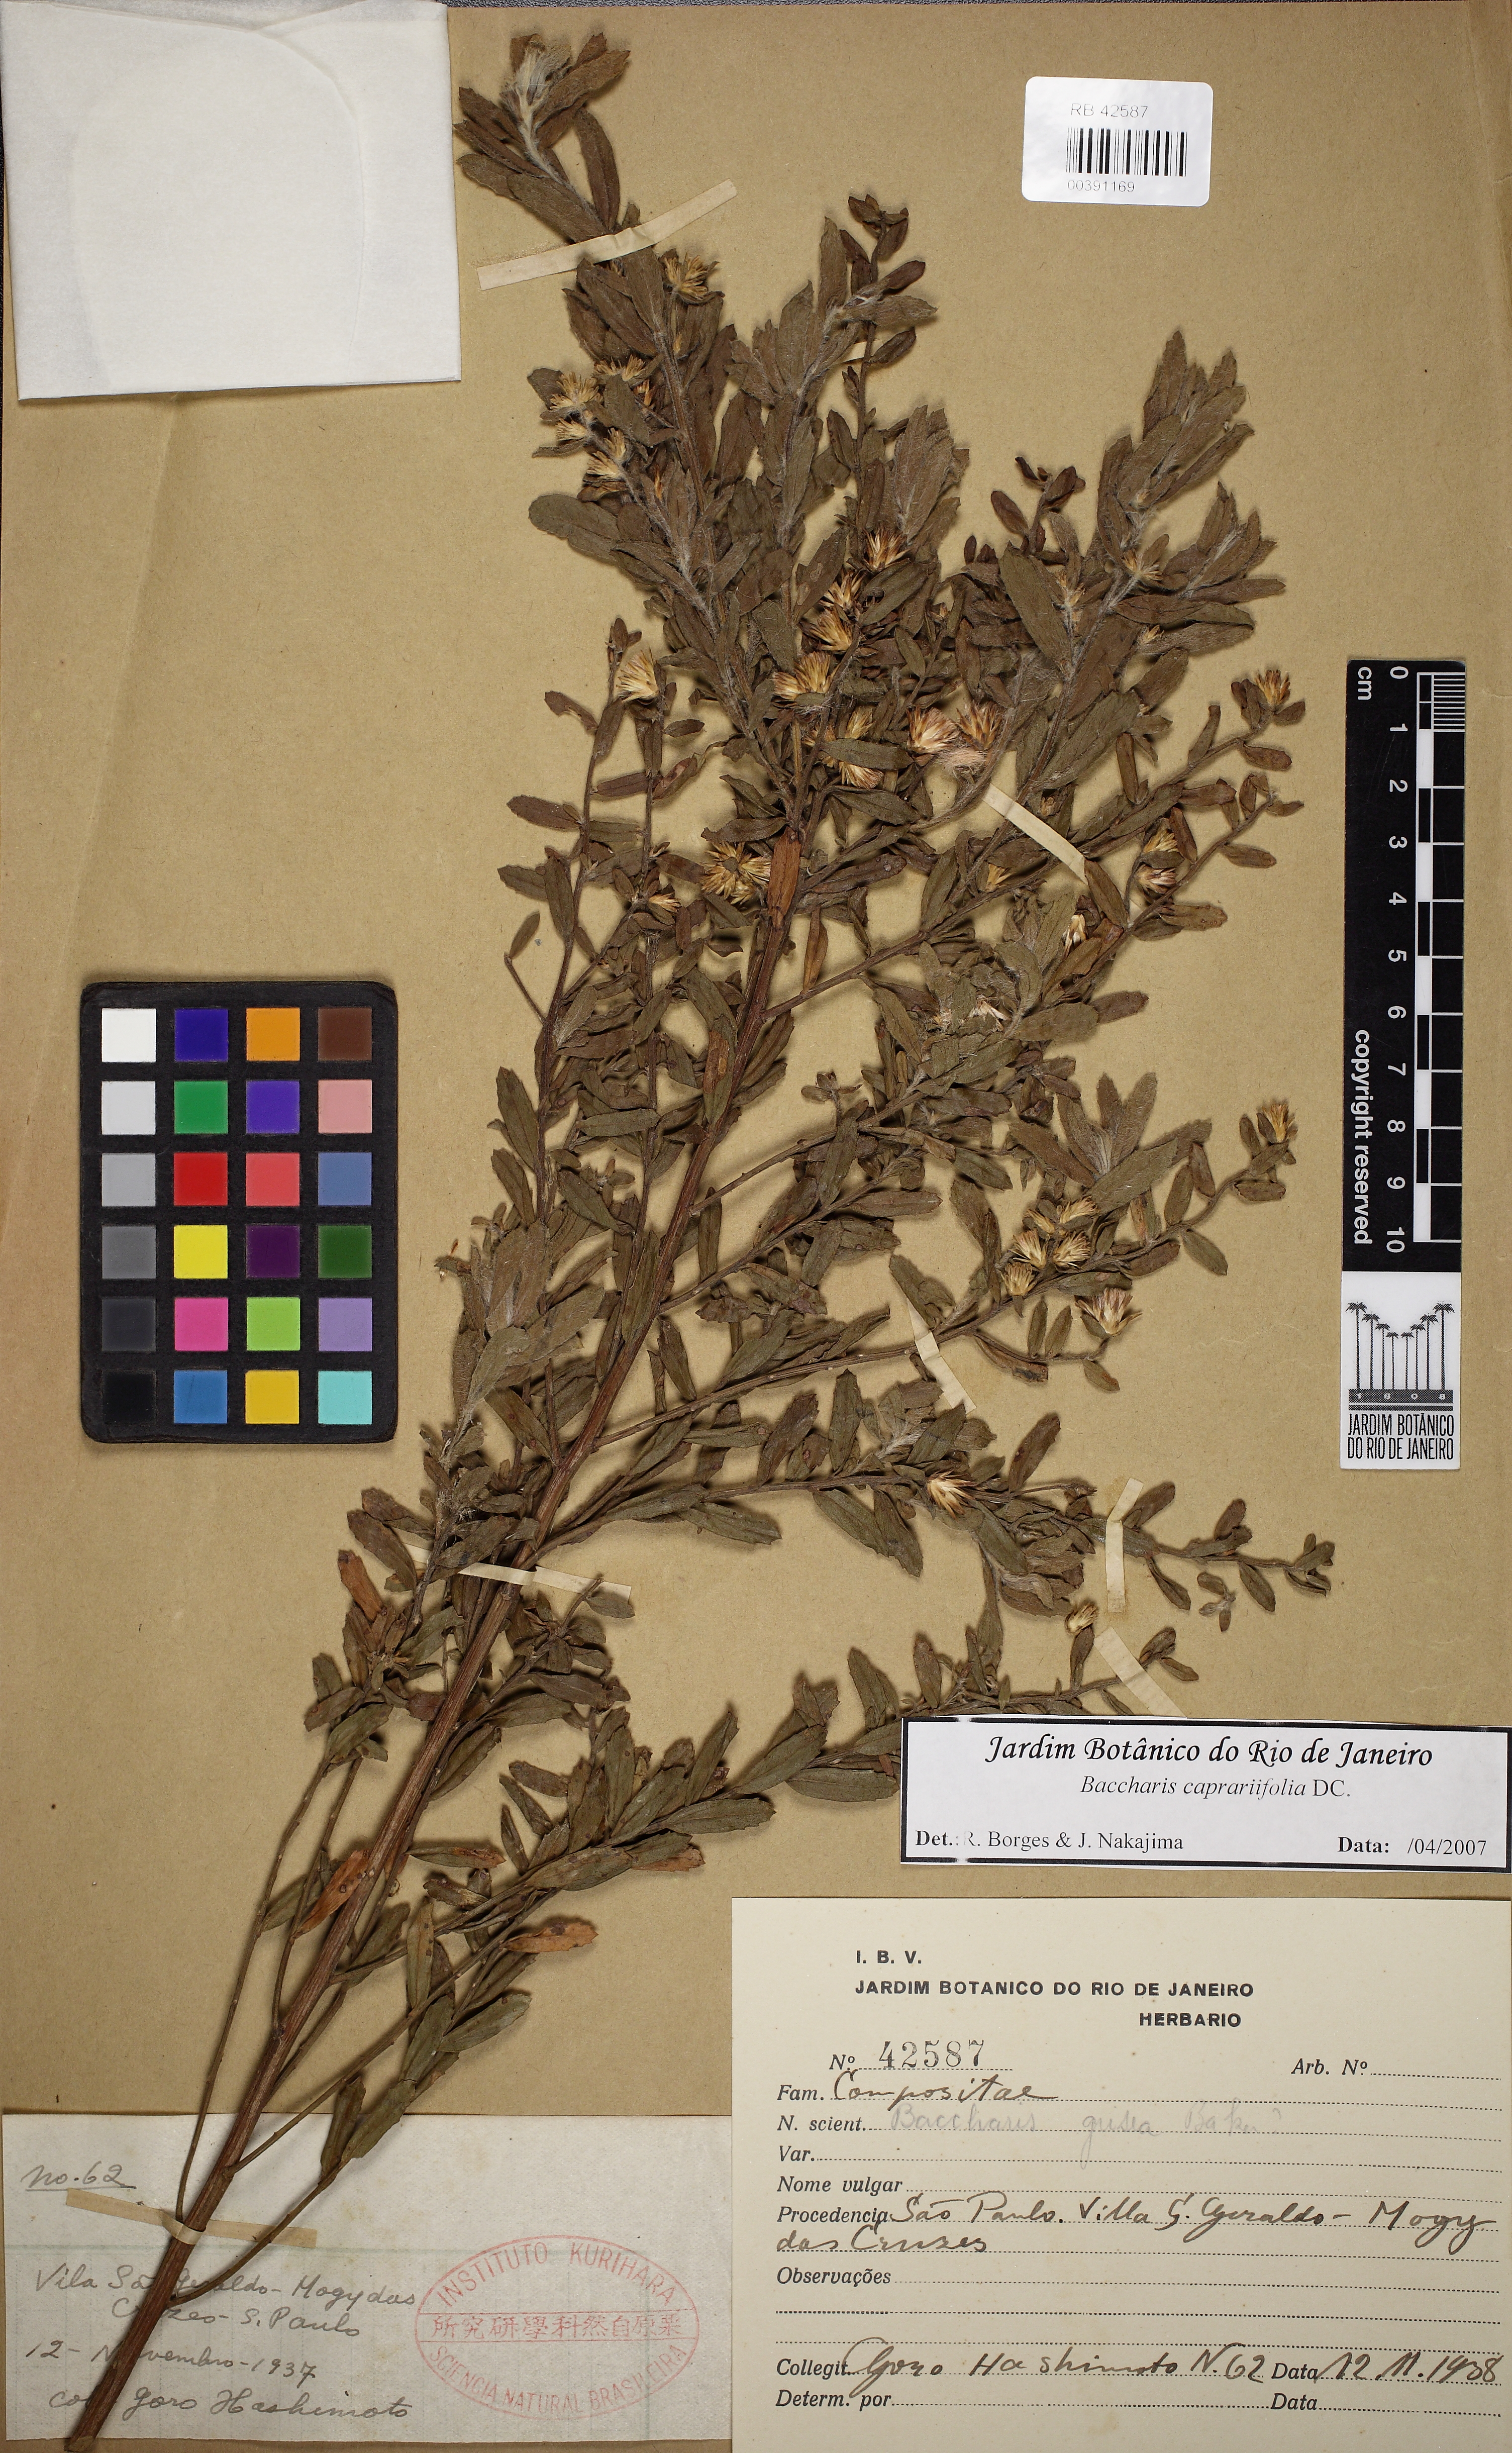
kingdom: Plantae
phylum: Tracheophyta
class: Magnoliopsida
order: Asterales
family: Asteraceae
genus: Baccharis
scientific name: Baccharis caprariifolia
